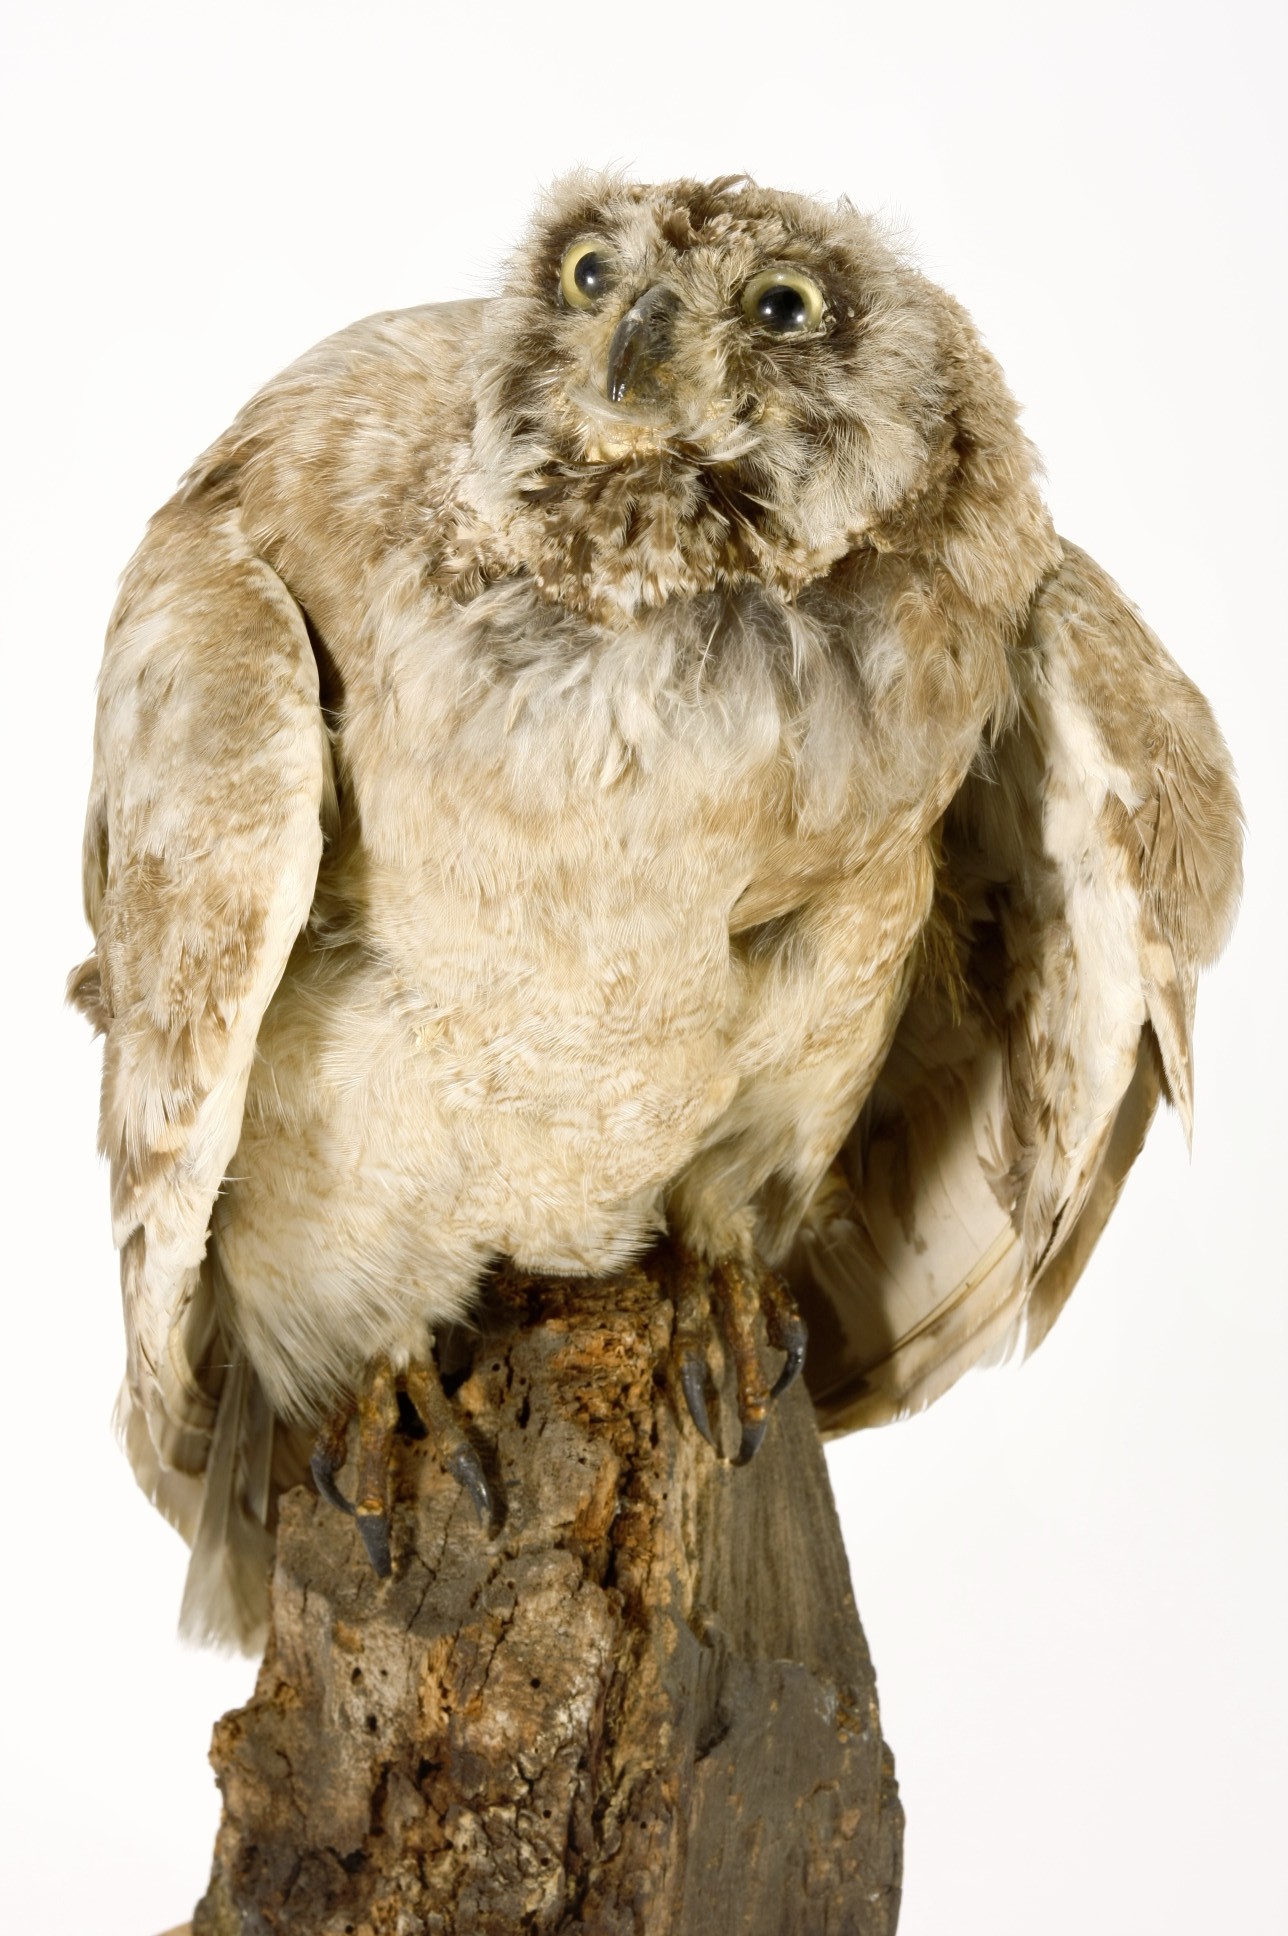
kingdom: Animalia
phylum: Chordata
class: Aves
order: Strigiformes
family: Strigidae
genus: Asio
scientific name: Asio capensis
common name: Marsh owl
